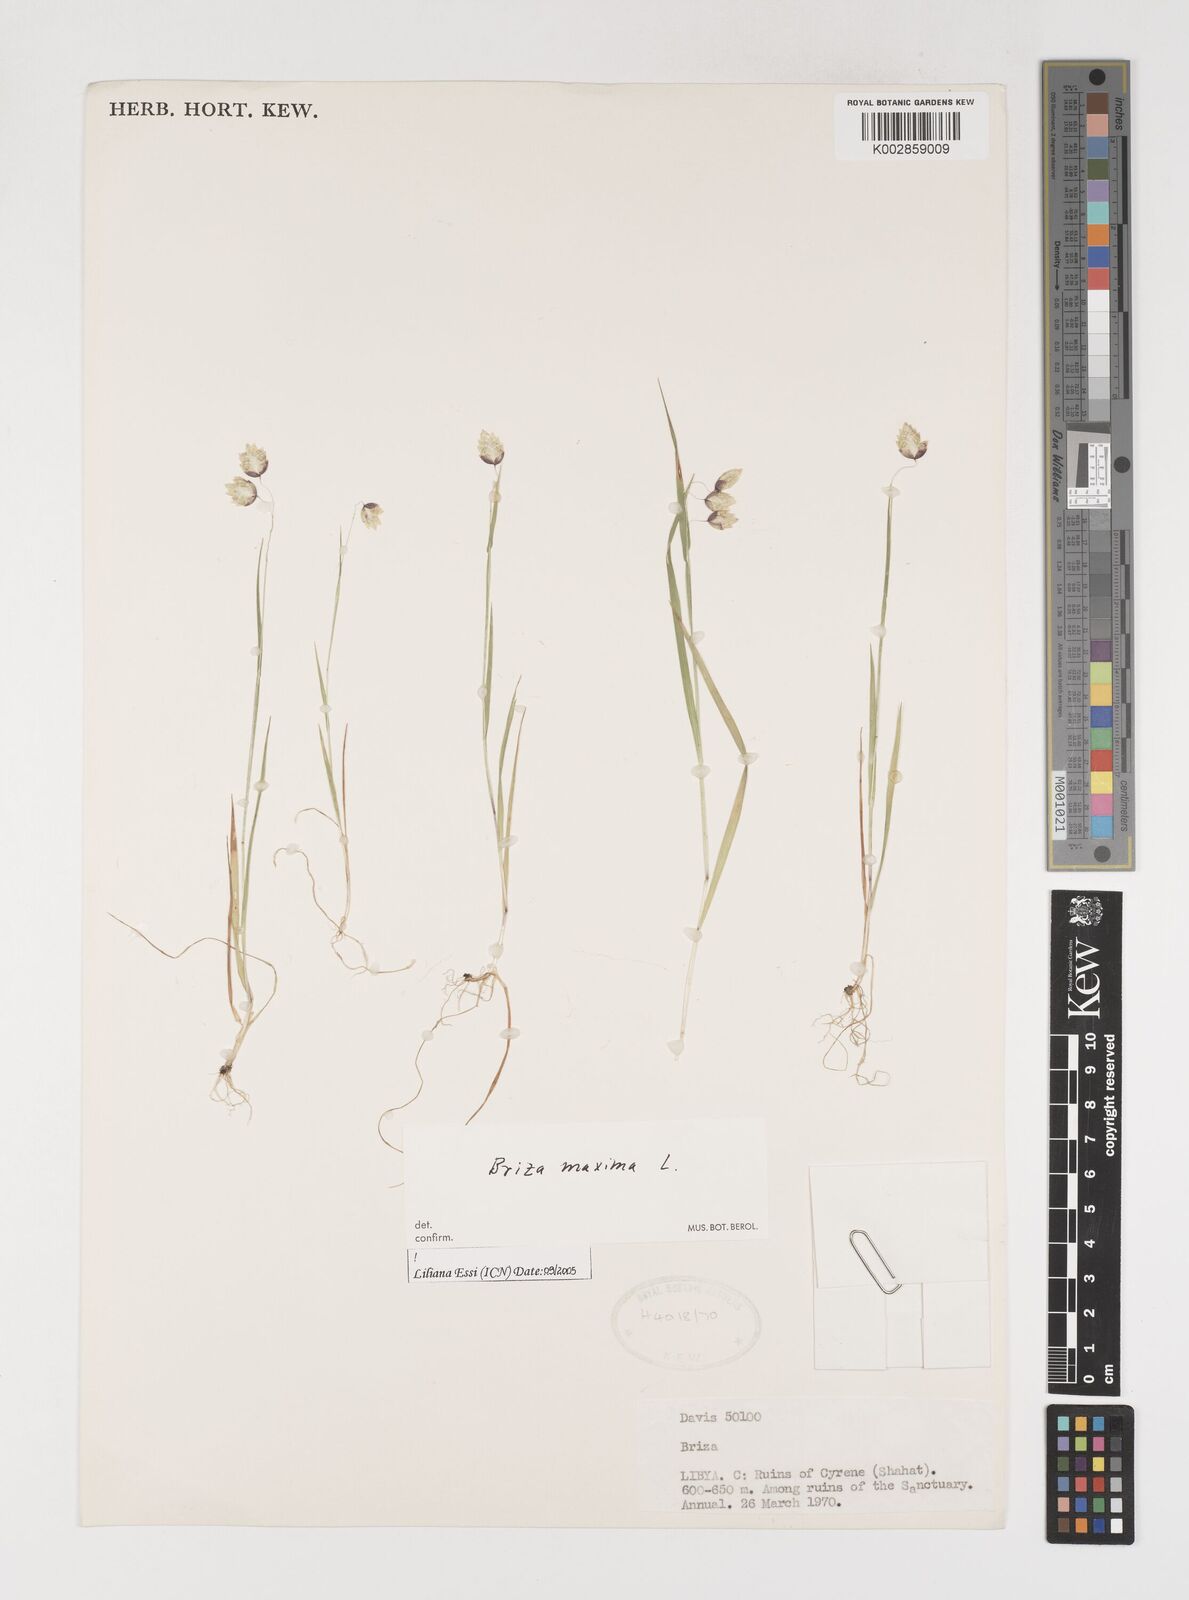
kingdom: Plantae
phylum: Tracheophyta
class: Liliopsida
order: Poales
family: Poaceae
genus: Briza
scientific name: Briza maxima
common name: Big quakinggrass
